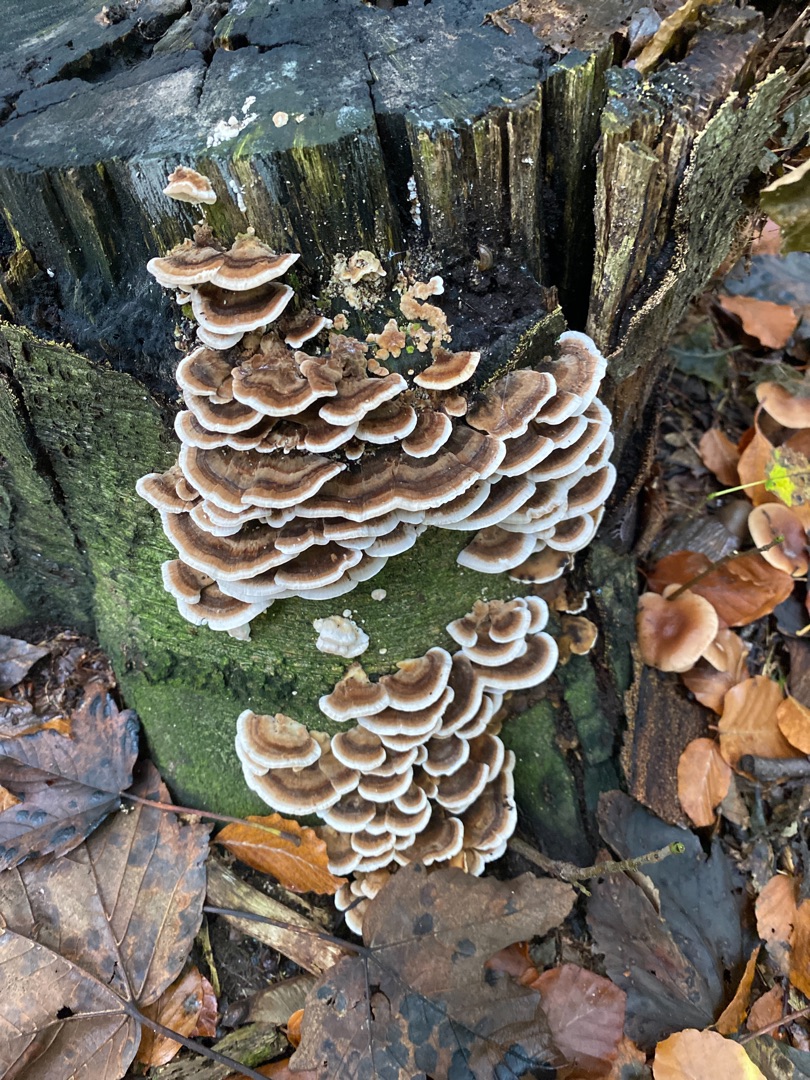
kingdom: Fungi
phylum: Basidiomycota
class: Agaricomycetes
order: Polyporales
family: Polyporaceae
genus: Trametes
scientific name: Trametes versicolor
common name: Broget læderporesvamp
